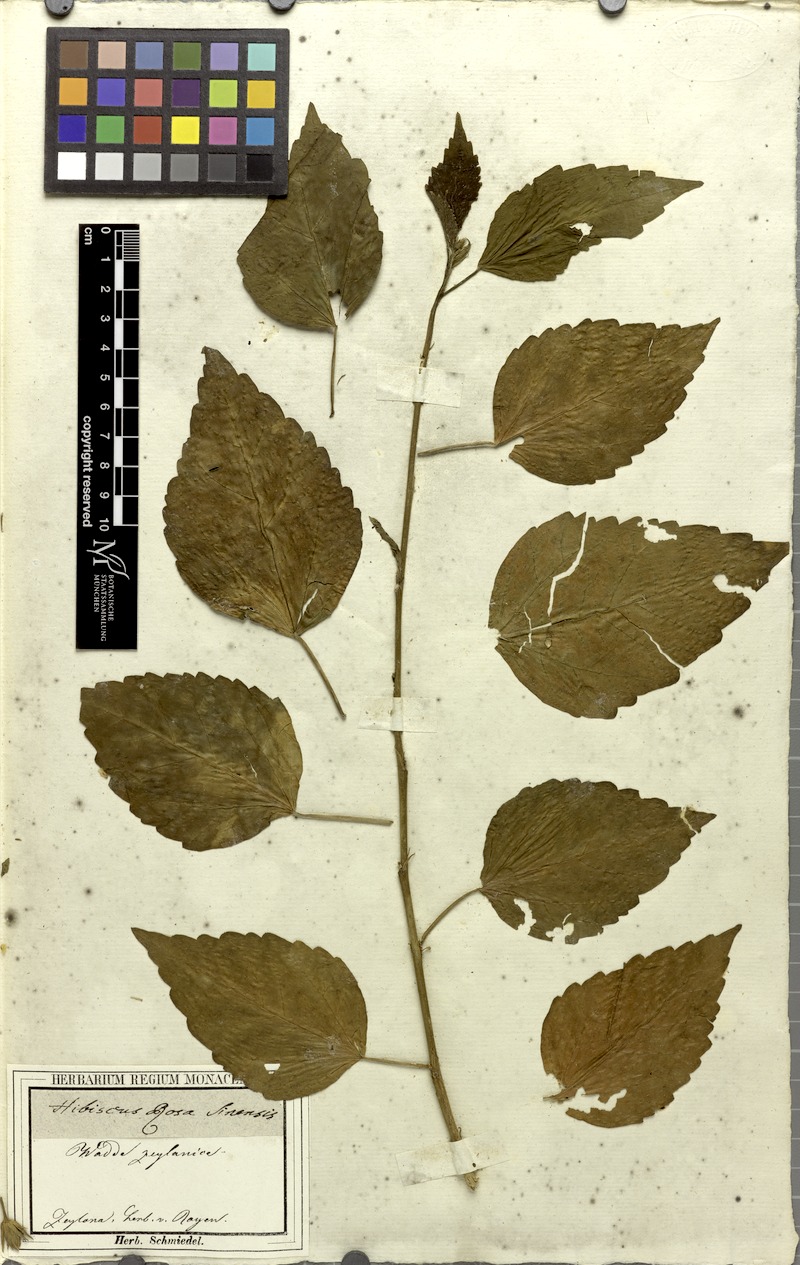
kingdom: Plantae
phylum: Tracheophyta
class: Magnoliopsida
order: Malvales
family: Malvaceae
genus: Hibiscus
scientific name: Hibiscus rosa-sinensis
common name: Hibiscus
